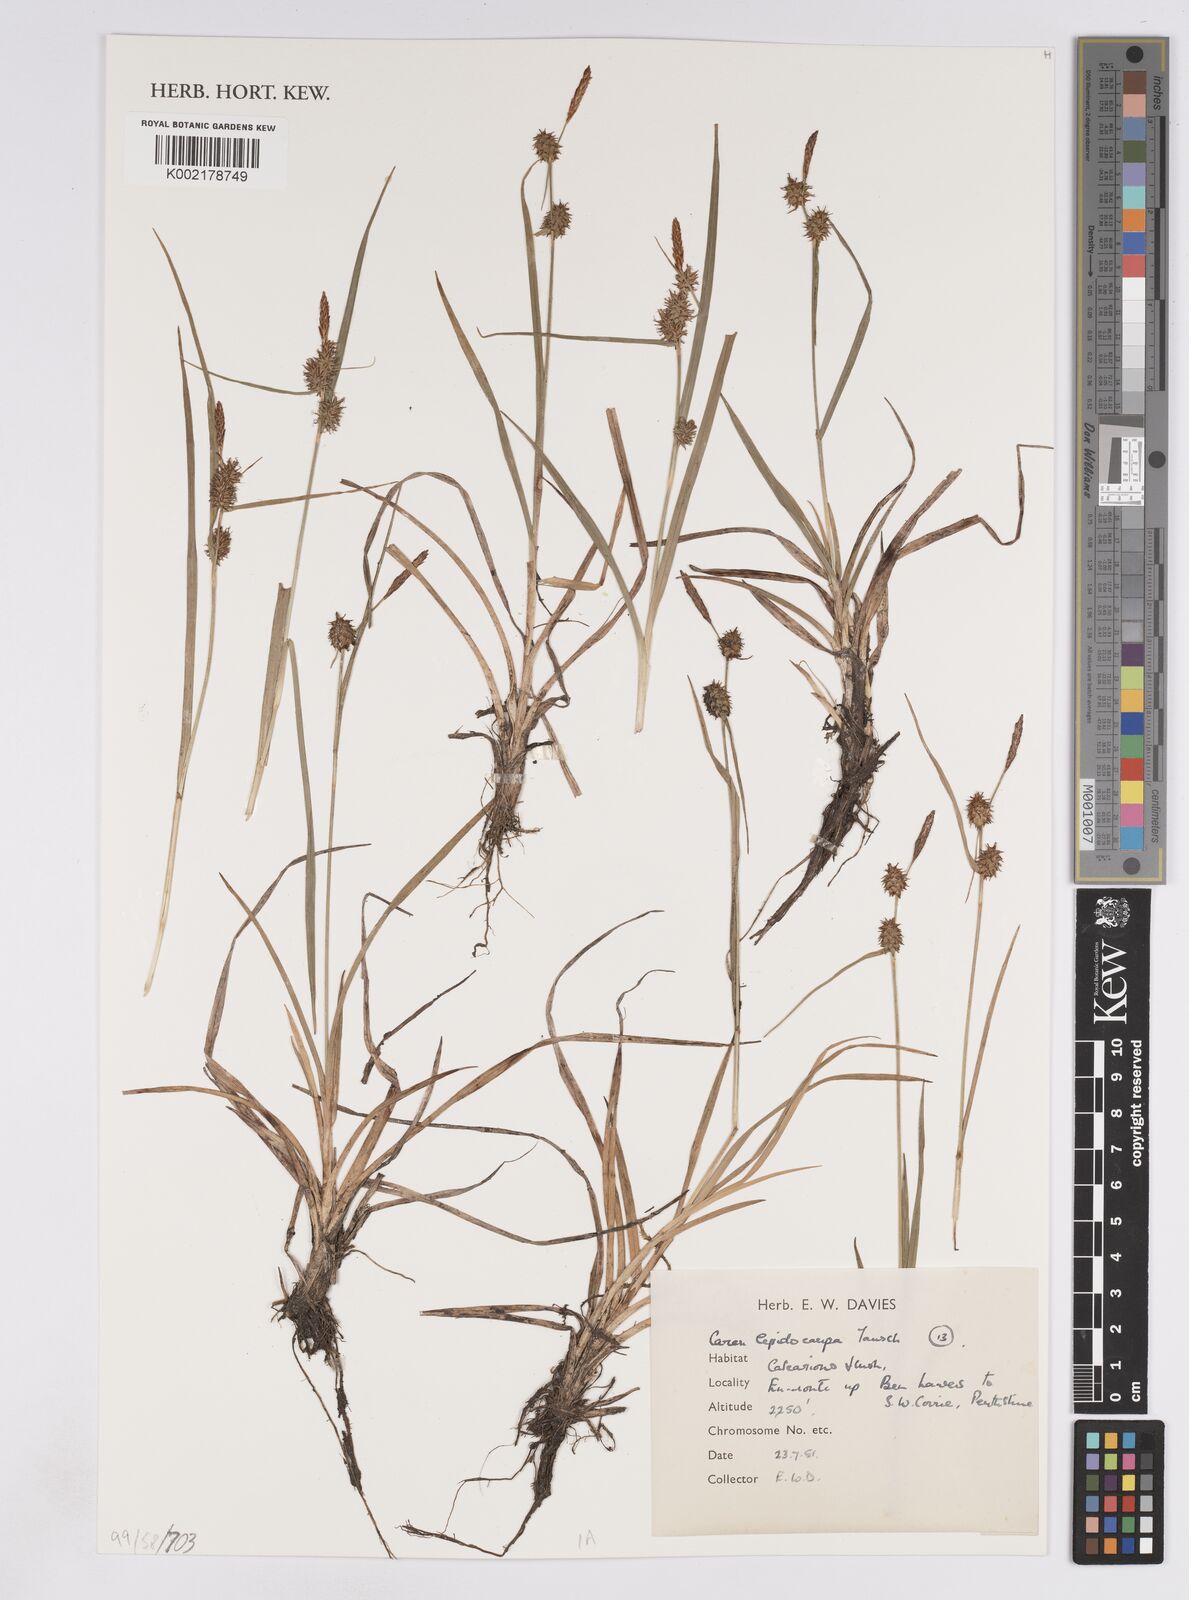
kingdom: Plantae
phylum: Tracheophyta
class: Liliopsida
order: Poales
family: Cyperaceae
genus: Carex
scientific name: Carex lepidocarpa
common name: Long-stalked yellow-sedge
